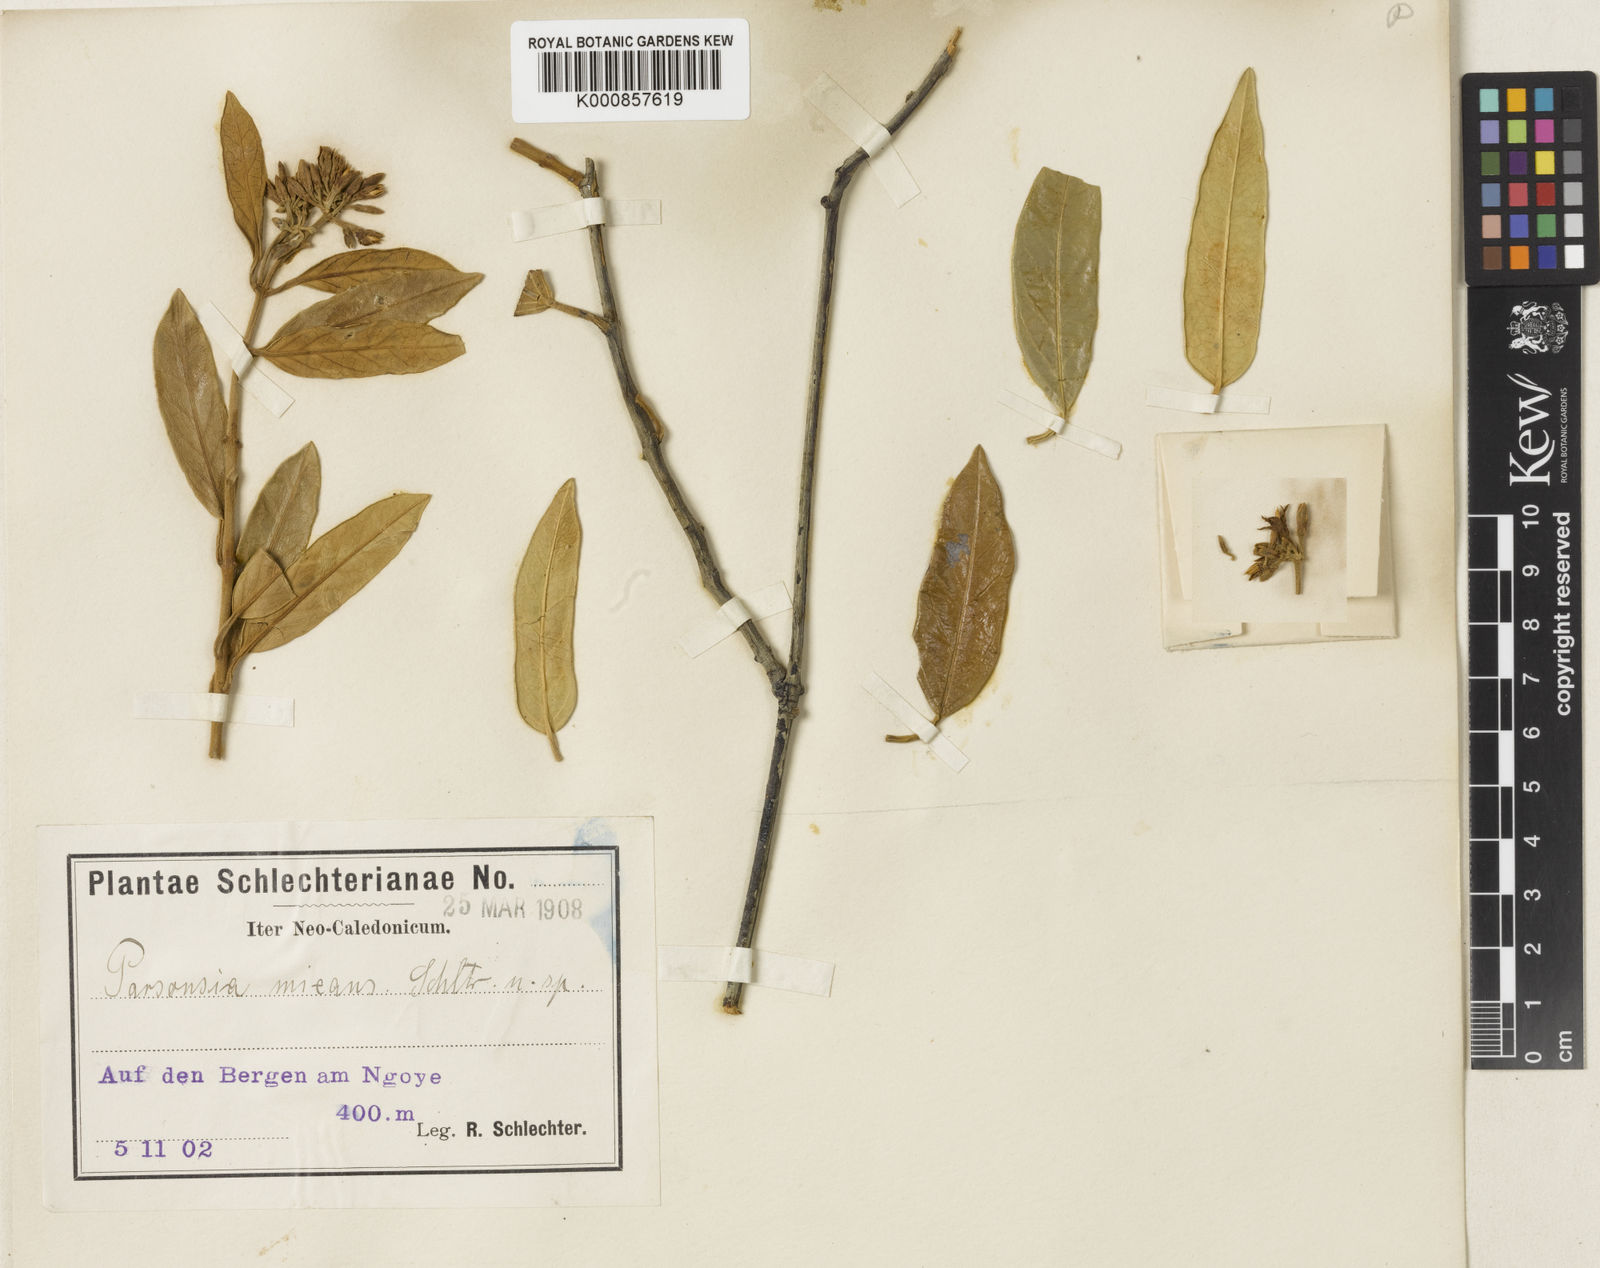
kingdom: Plantae
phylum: Tracheophyta
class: Magnoliopsida
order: Gentianales
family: Apocynaceae
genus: Parsonsia
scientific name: Parsonsia flexuosa
